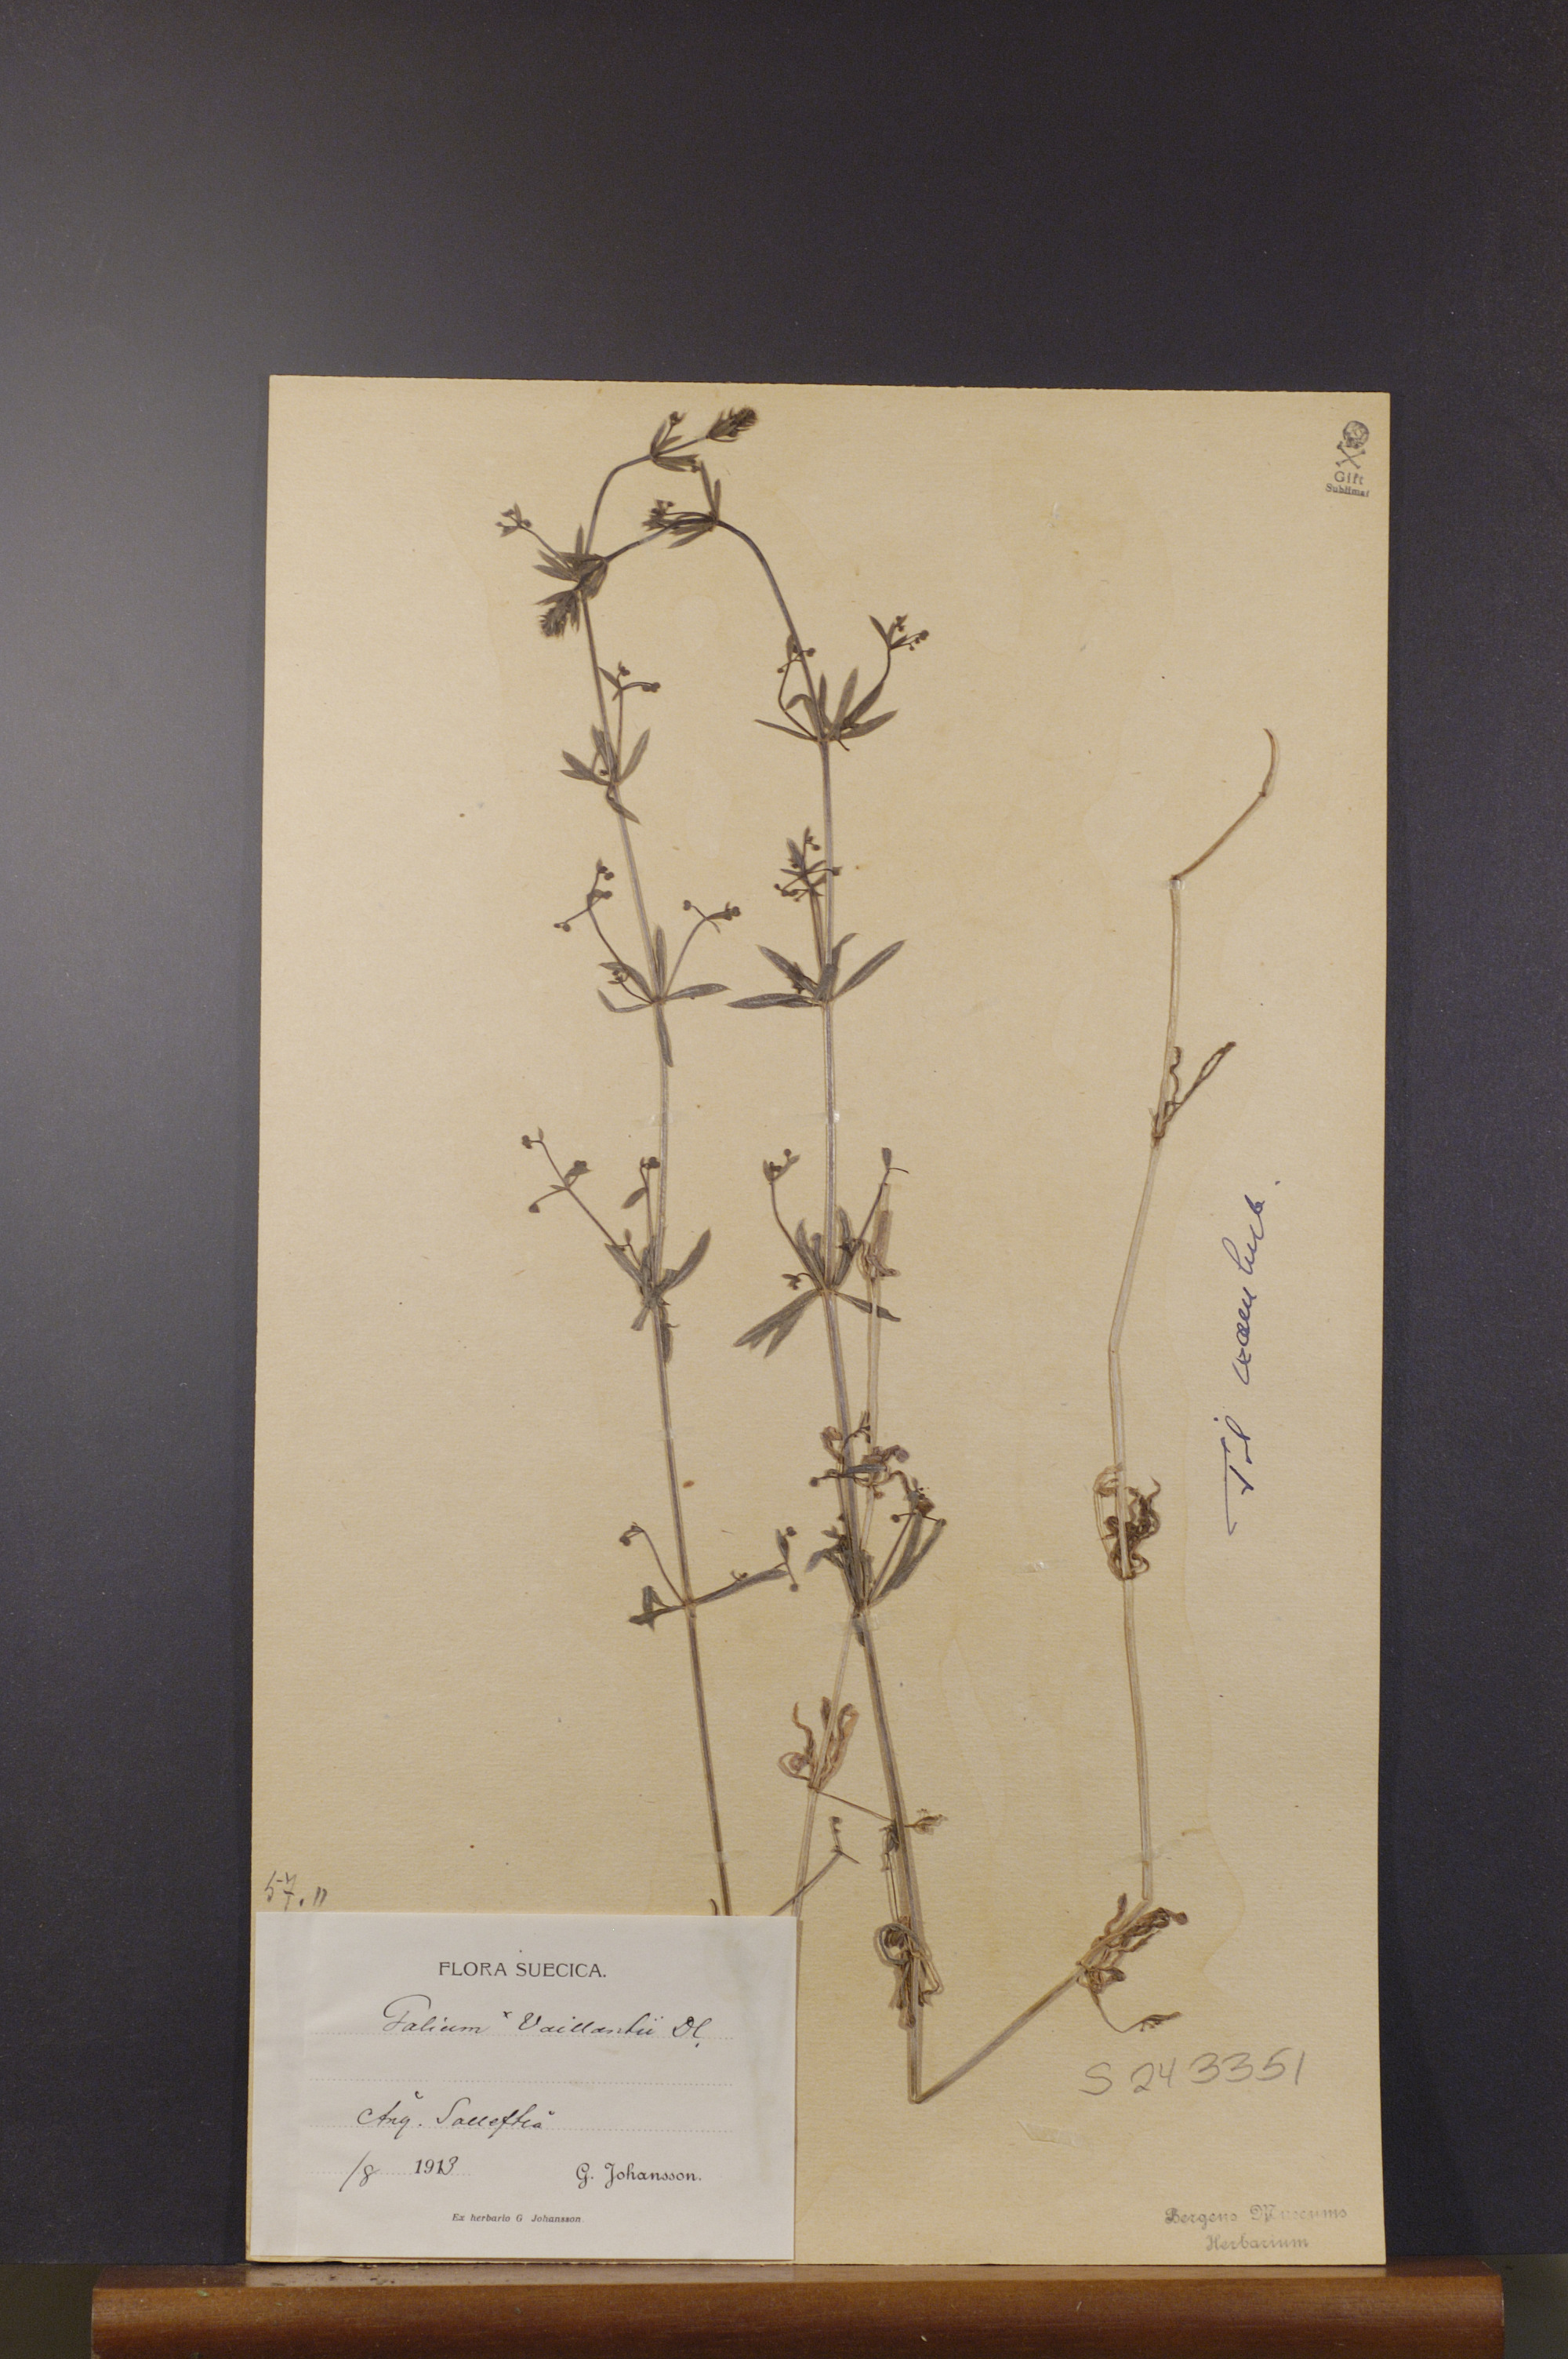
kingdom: Plantae
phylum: Tracheophyta
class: Magnoliopsida
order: Gentianales
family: Rubiaceae
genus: Galium
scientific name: Galium spurium
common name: False cleavers
